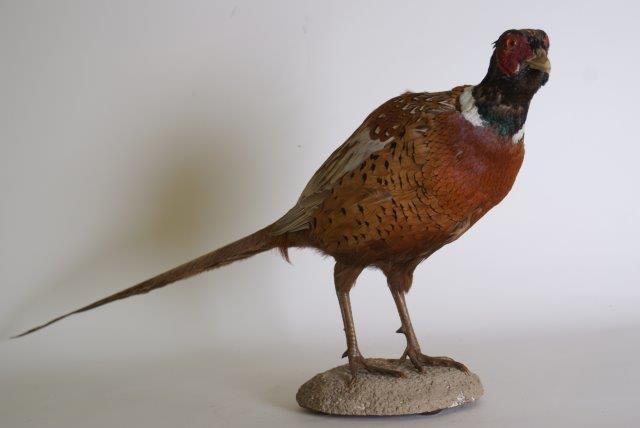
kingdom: Animalia
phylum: Chordata
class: Aves
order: Galliformes
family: Phasianidae
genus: Phasianus
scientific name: Phasianus colchicus
